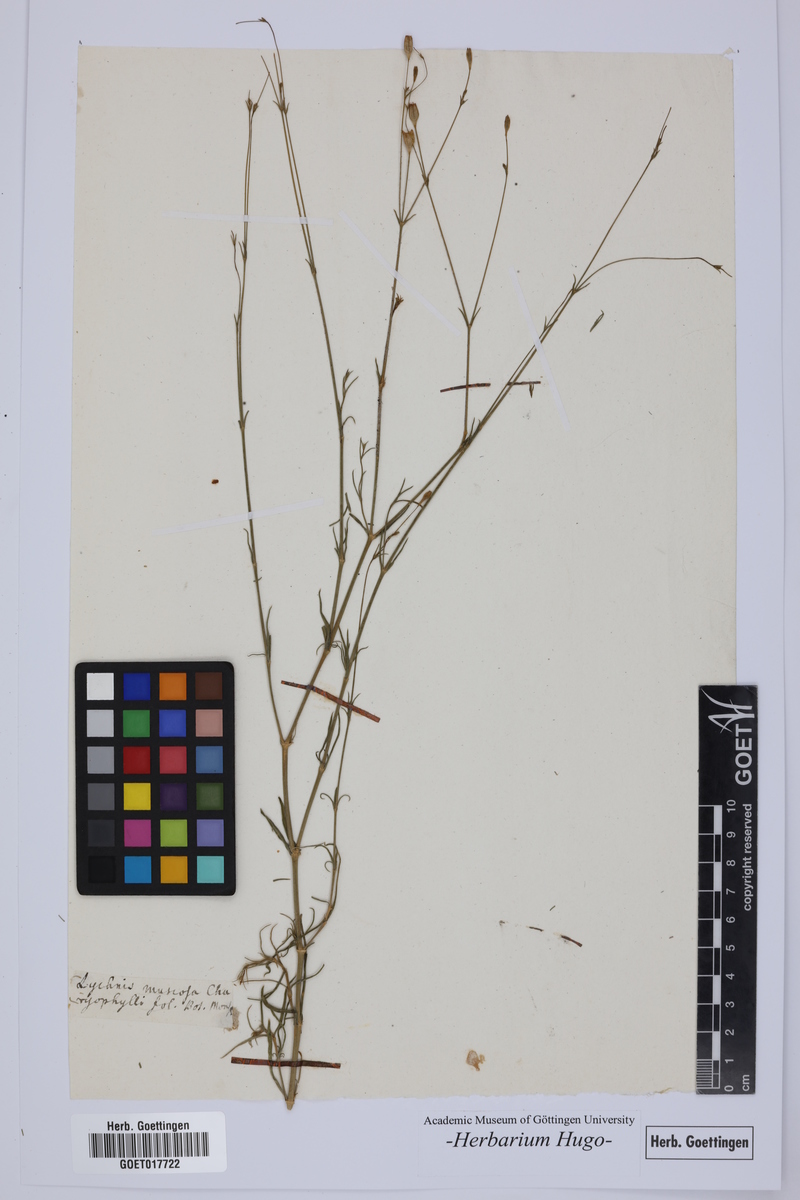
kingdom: Plantae
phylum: Tracheophyta
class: Magnoliopsida
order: Caryophyllales
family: Caryophyllaceae
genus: Silene
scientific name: Silene
